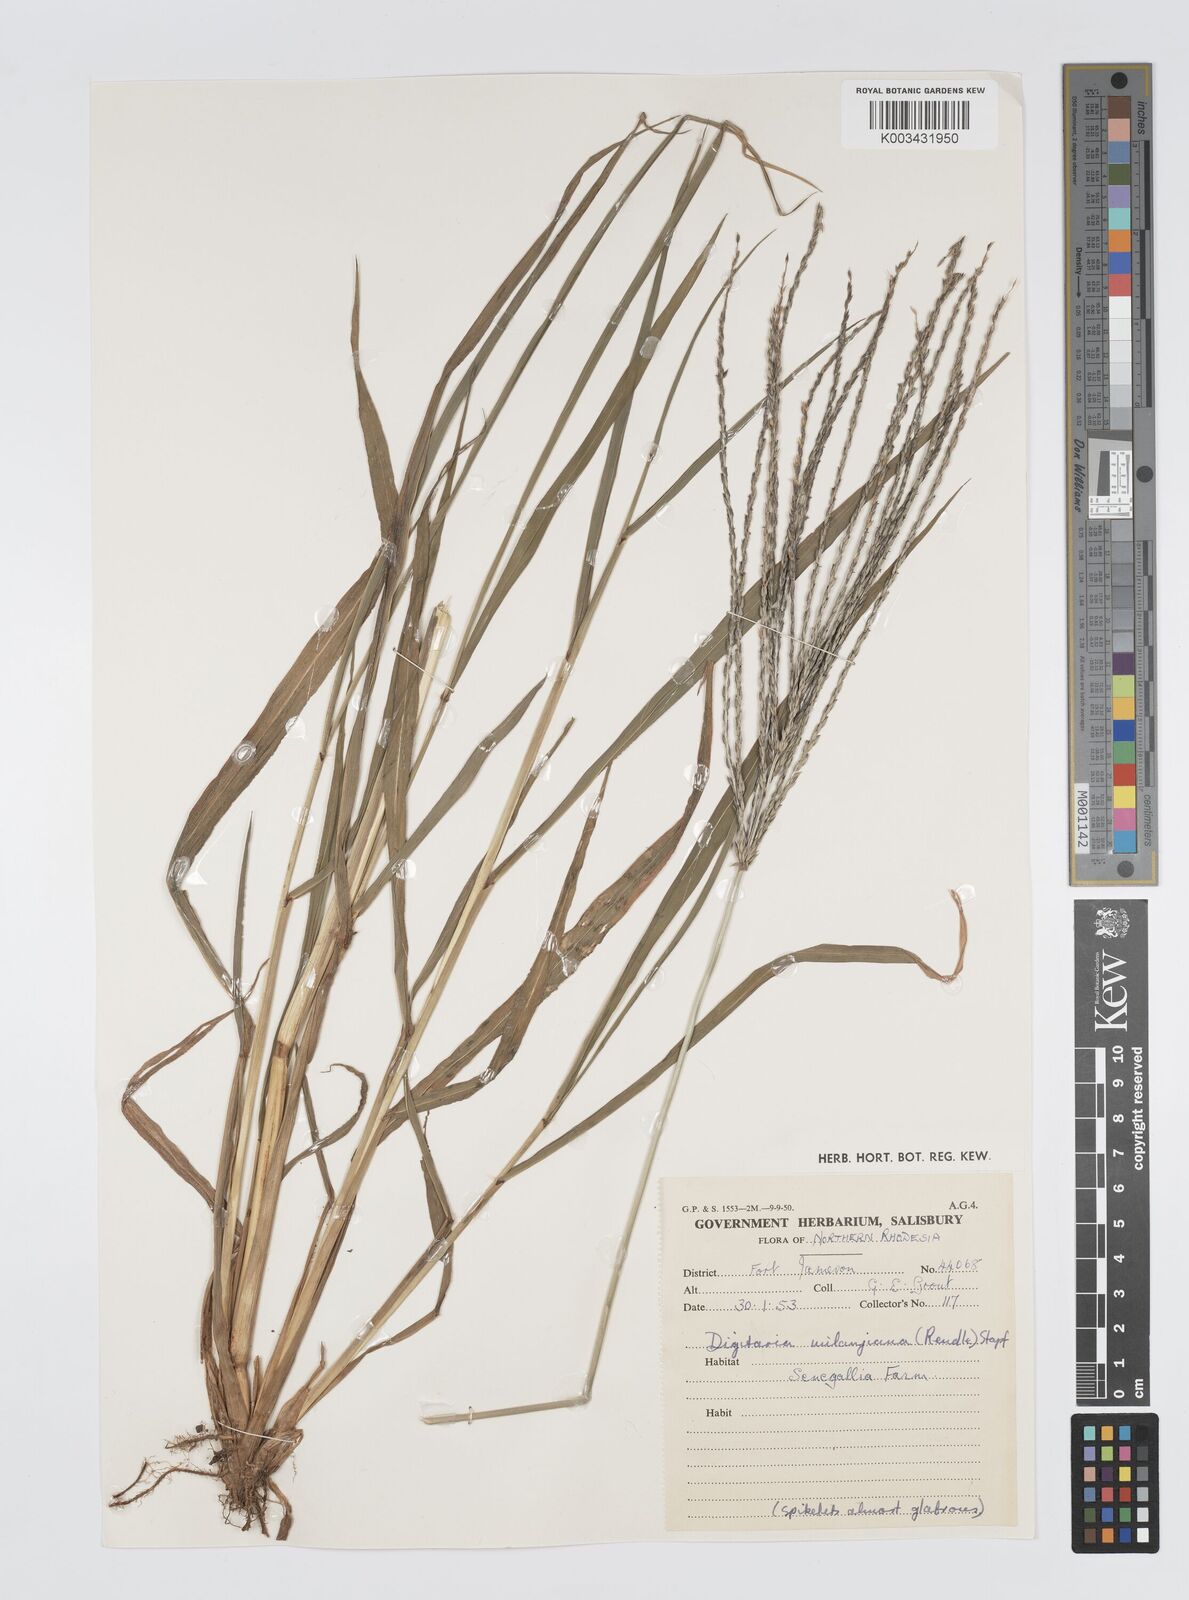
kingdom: Plantae
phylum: Tracheophyta
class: Liliopsida
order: Poales
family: Poaceae
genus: Digitaria
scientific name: Digitaria milanjiana
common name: Madagascar crabgrass
